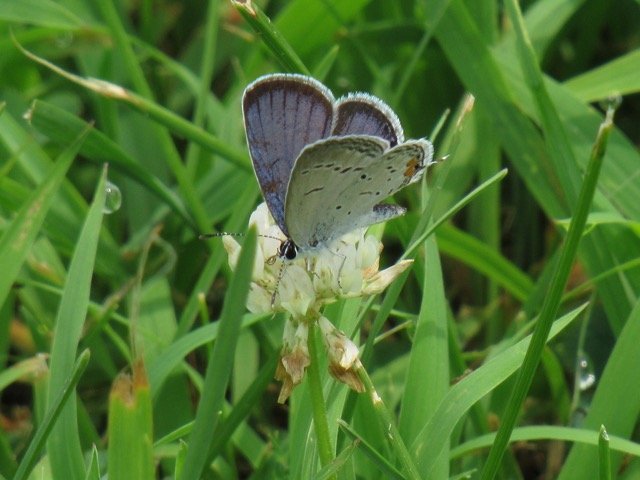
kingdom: Animalia
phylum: Arthropoda
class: Insecta
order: Lepidoptera
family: Lycaenidae
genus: Elkalyce
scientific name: Elkalyce comyntas
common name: Eastern Tailed-Blue
